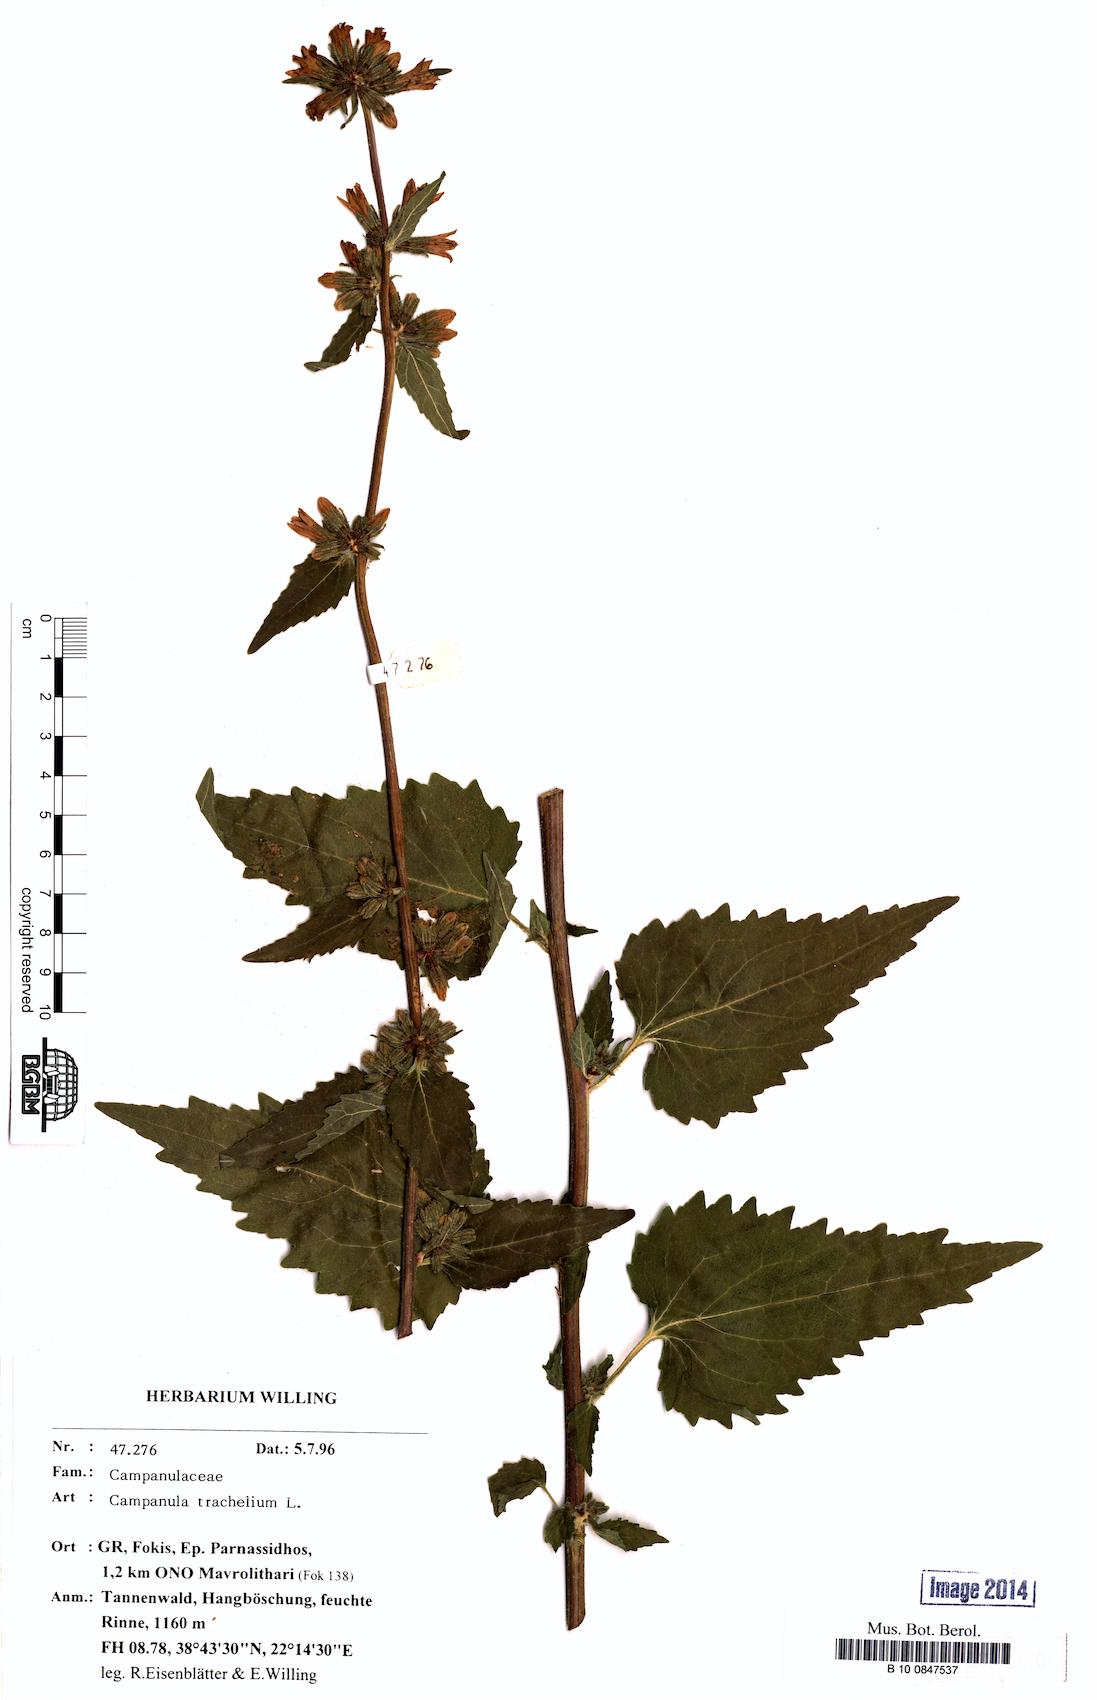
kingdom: Plantae
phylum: Tracheophyta
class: Magnoliopsida
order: Asterales
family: Campanulaceae
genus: Campanula
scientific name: Campanula trachelium
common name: Nettle-leaved bellflower
